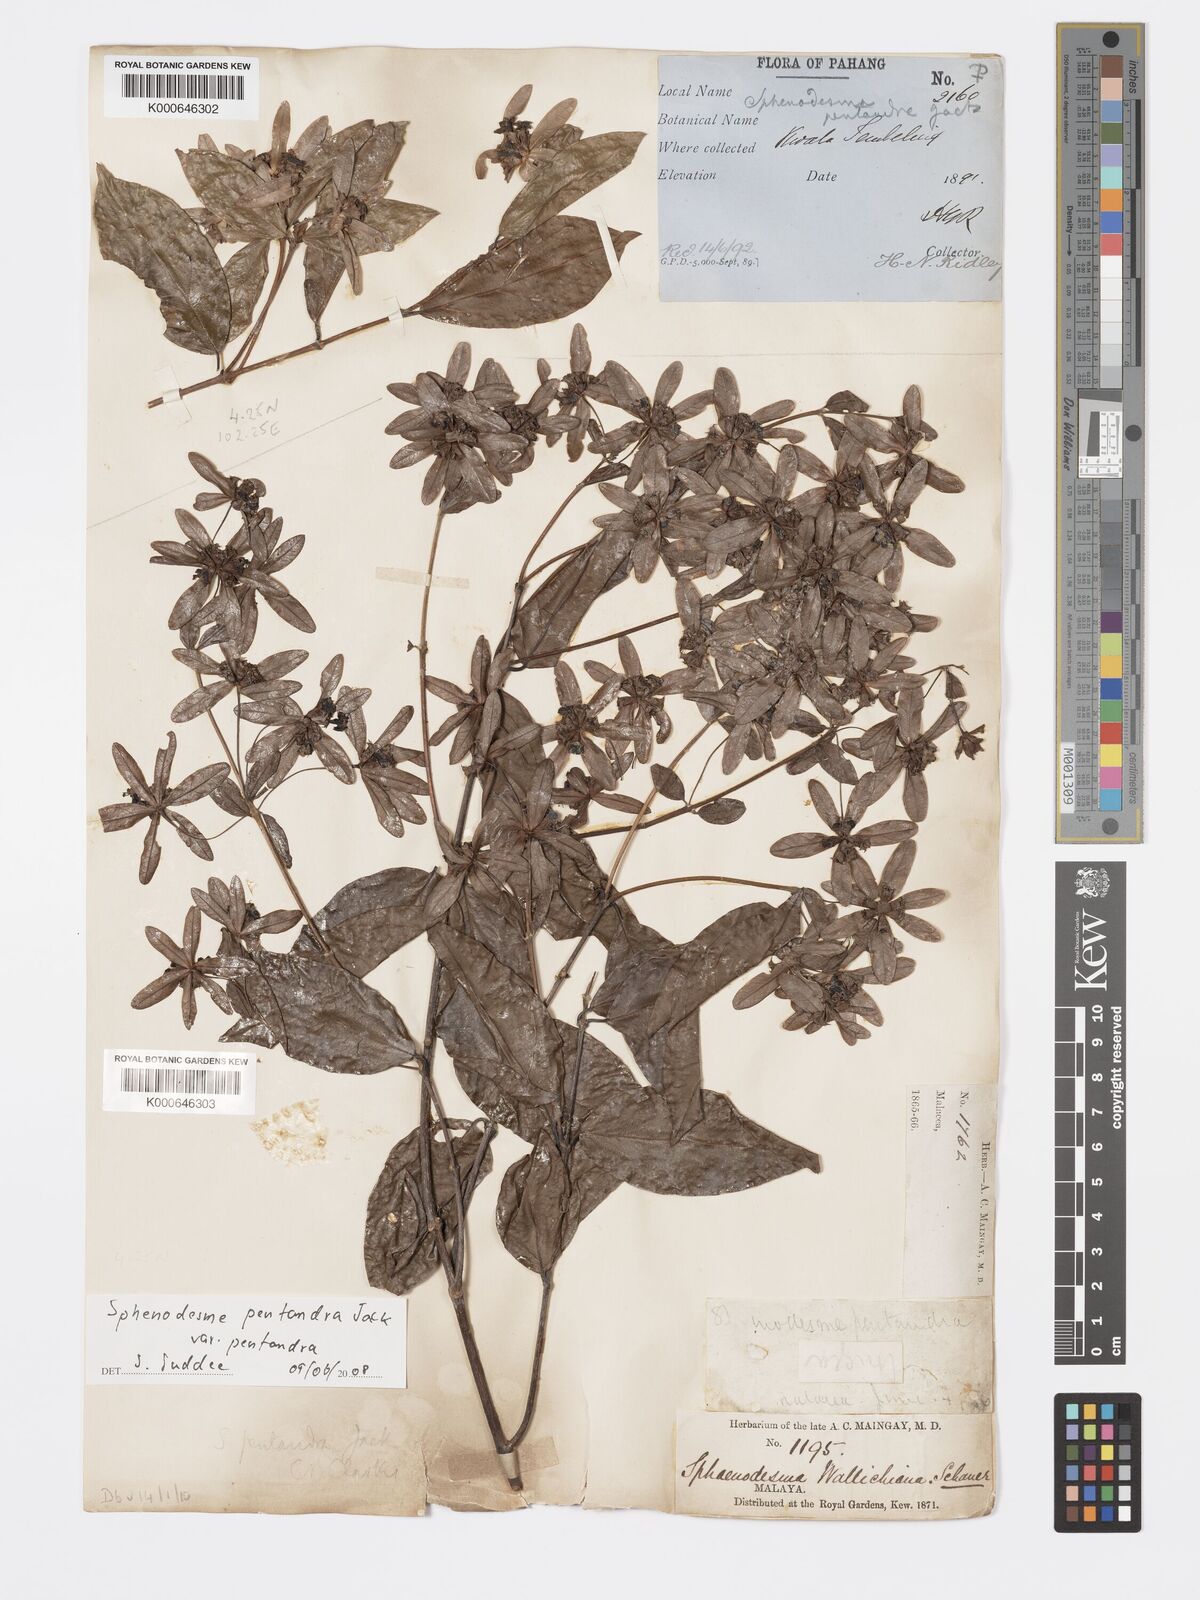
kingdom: Plantae
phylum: Tracheophyta
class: Magnoliopsida
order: Lamiales
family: Lamiaceae
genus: Sphenodesme
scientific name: Sphenodesme pentandra
